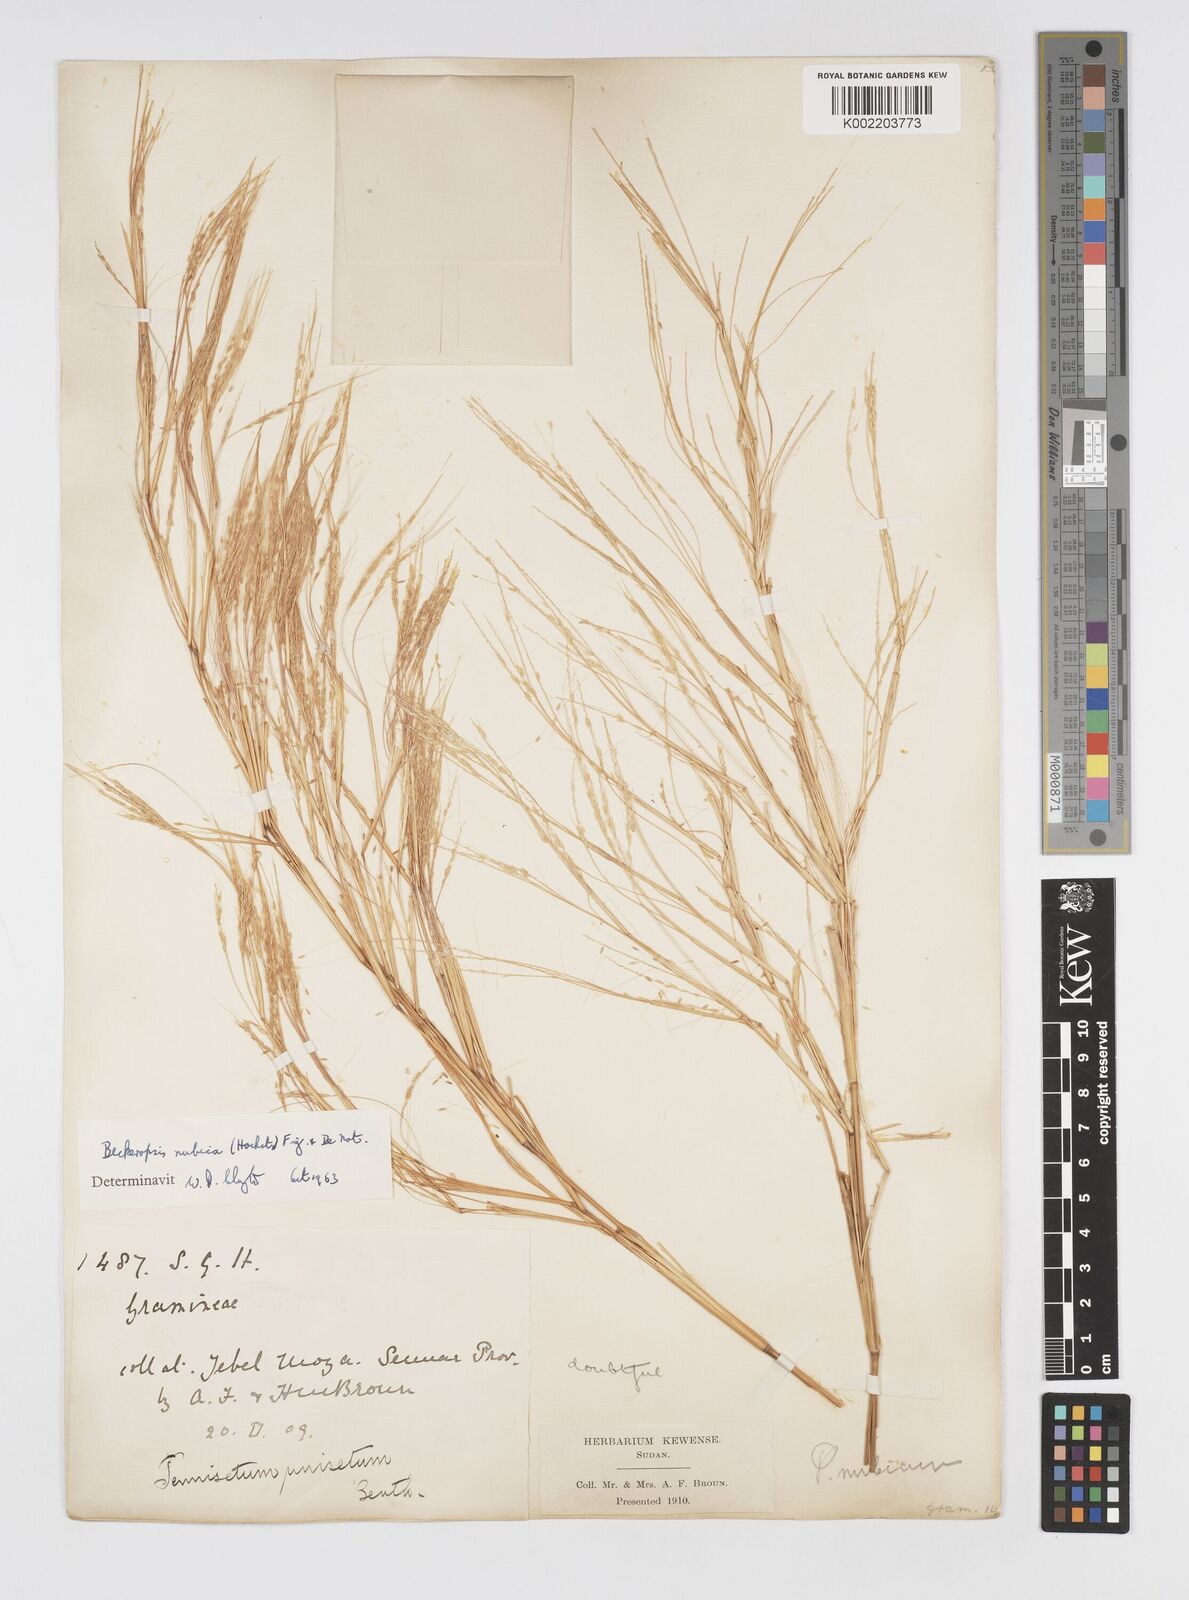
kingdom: Plantae
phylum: Tracheophyta
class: Liliopsida
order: Poales
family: Poaceae
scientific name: Poaceae
